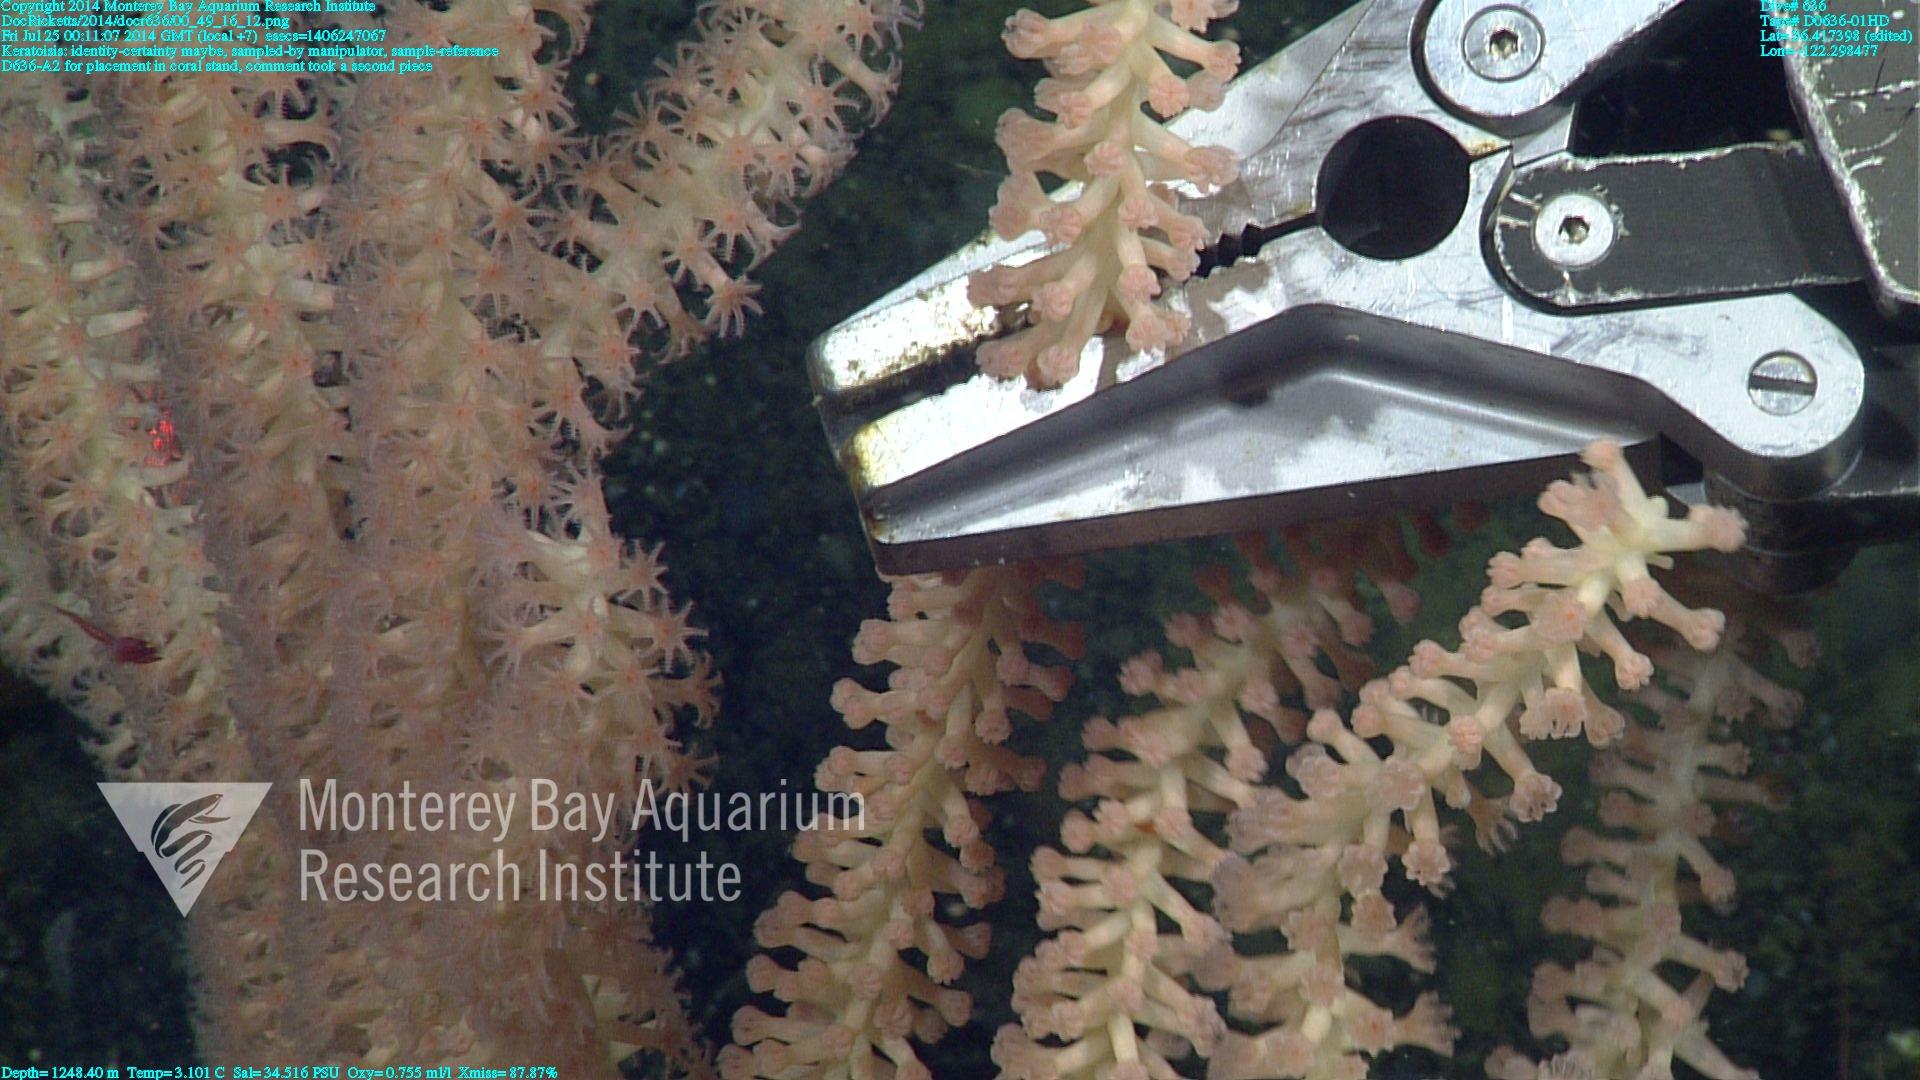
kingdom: Animalia
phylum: Cnidaria
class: Anthozoa
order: Scleralcyonacea
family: Keratoisididae
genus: Keratoisis
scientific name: Keratoisis
